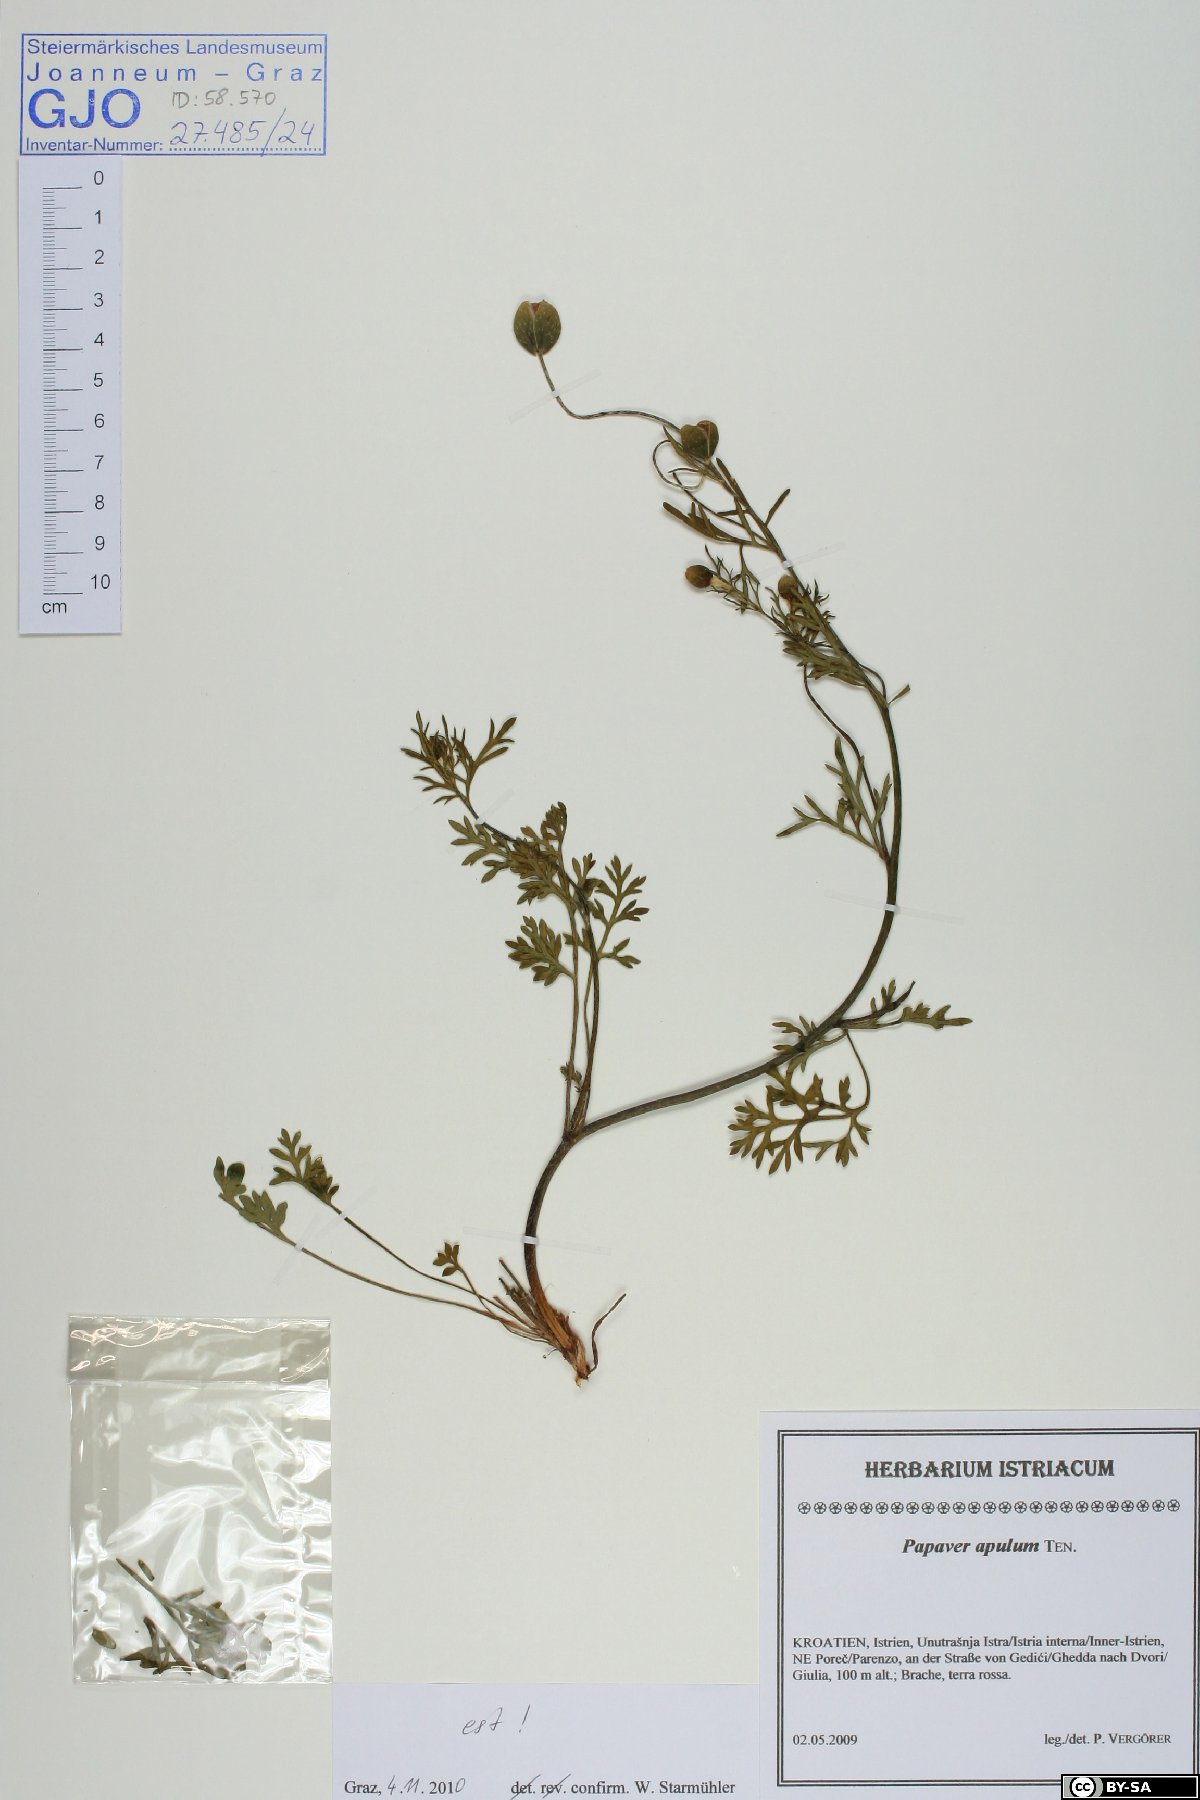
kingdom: Plantae
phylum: Tracheophyta
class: Magnoliopsida
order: Ranunculales
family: Papaveraceae
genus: Roemeria
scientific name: Roemeria apula
